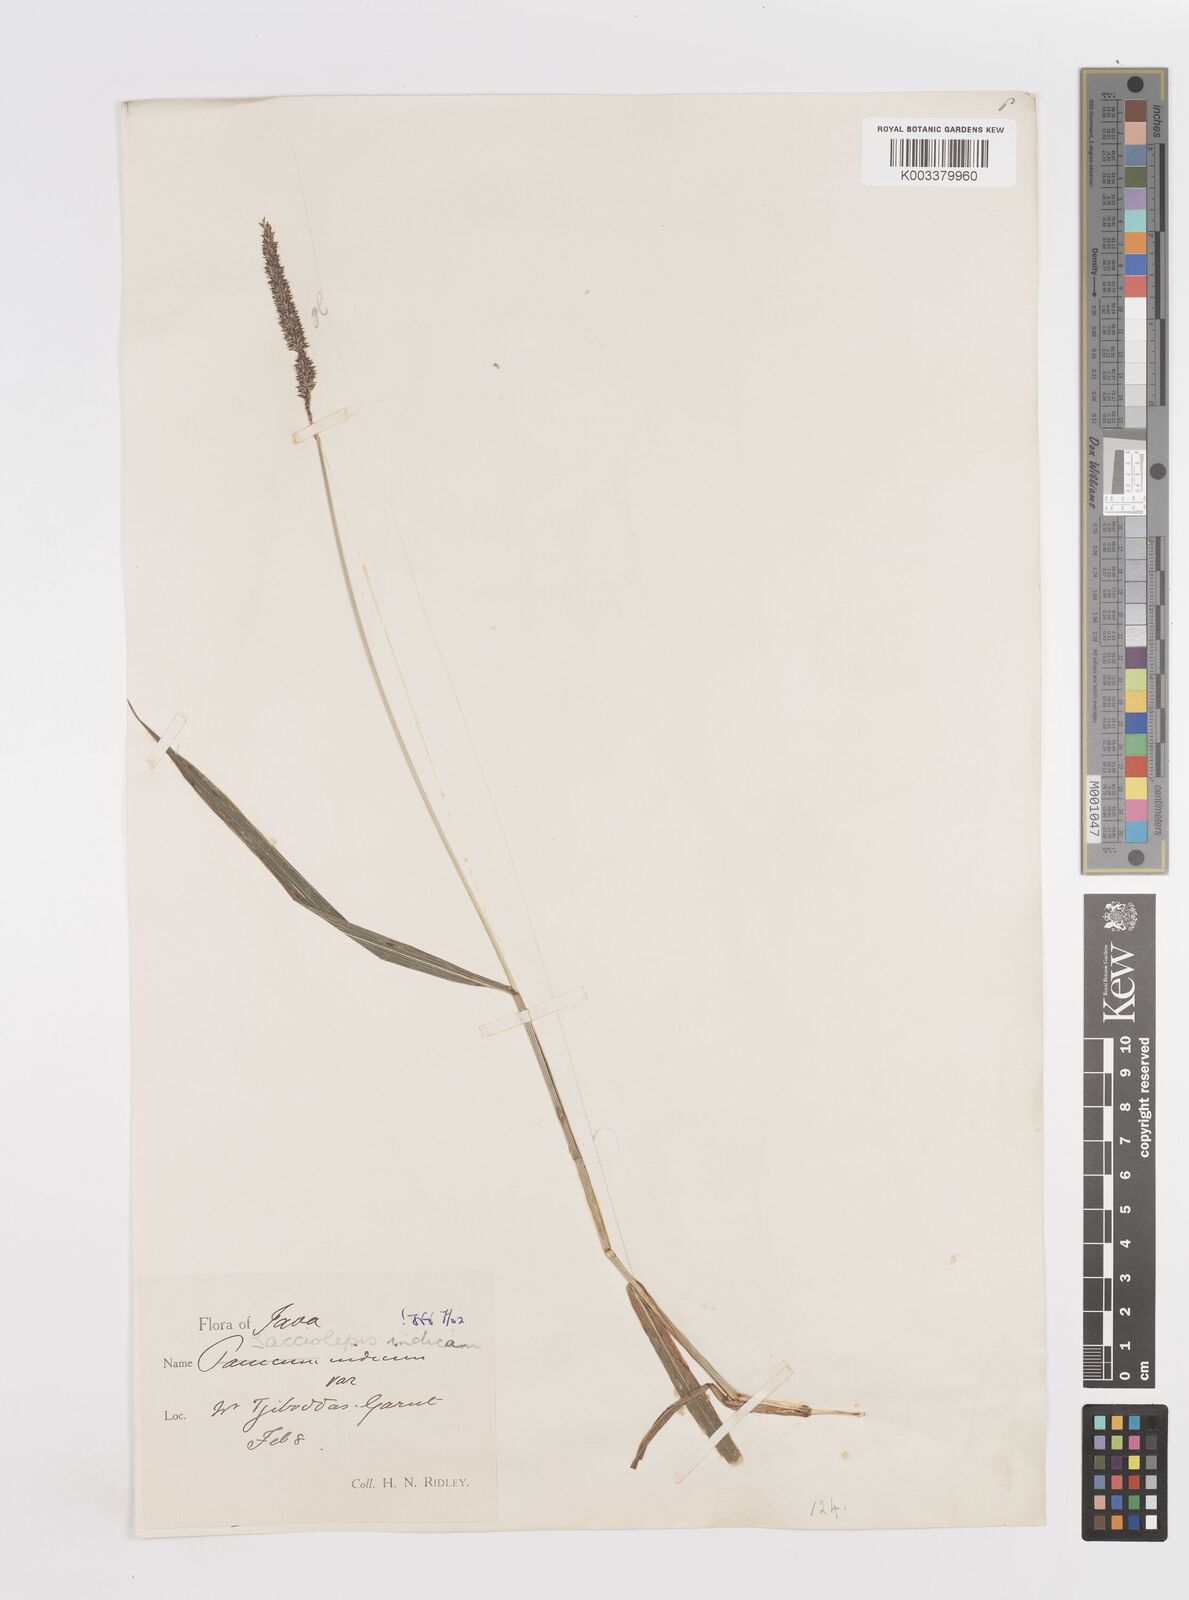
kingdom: Plantae
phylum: Tracheophyta
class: Liliopsida
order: Poales
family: Poaceae
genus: Sacciolepis
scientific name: Sacciolepis indica
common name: Glenwoodgrass
